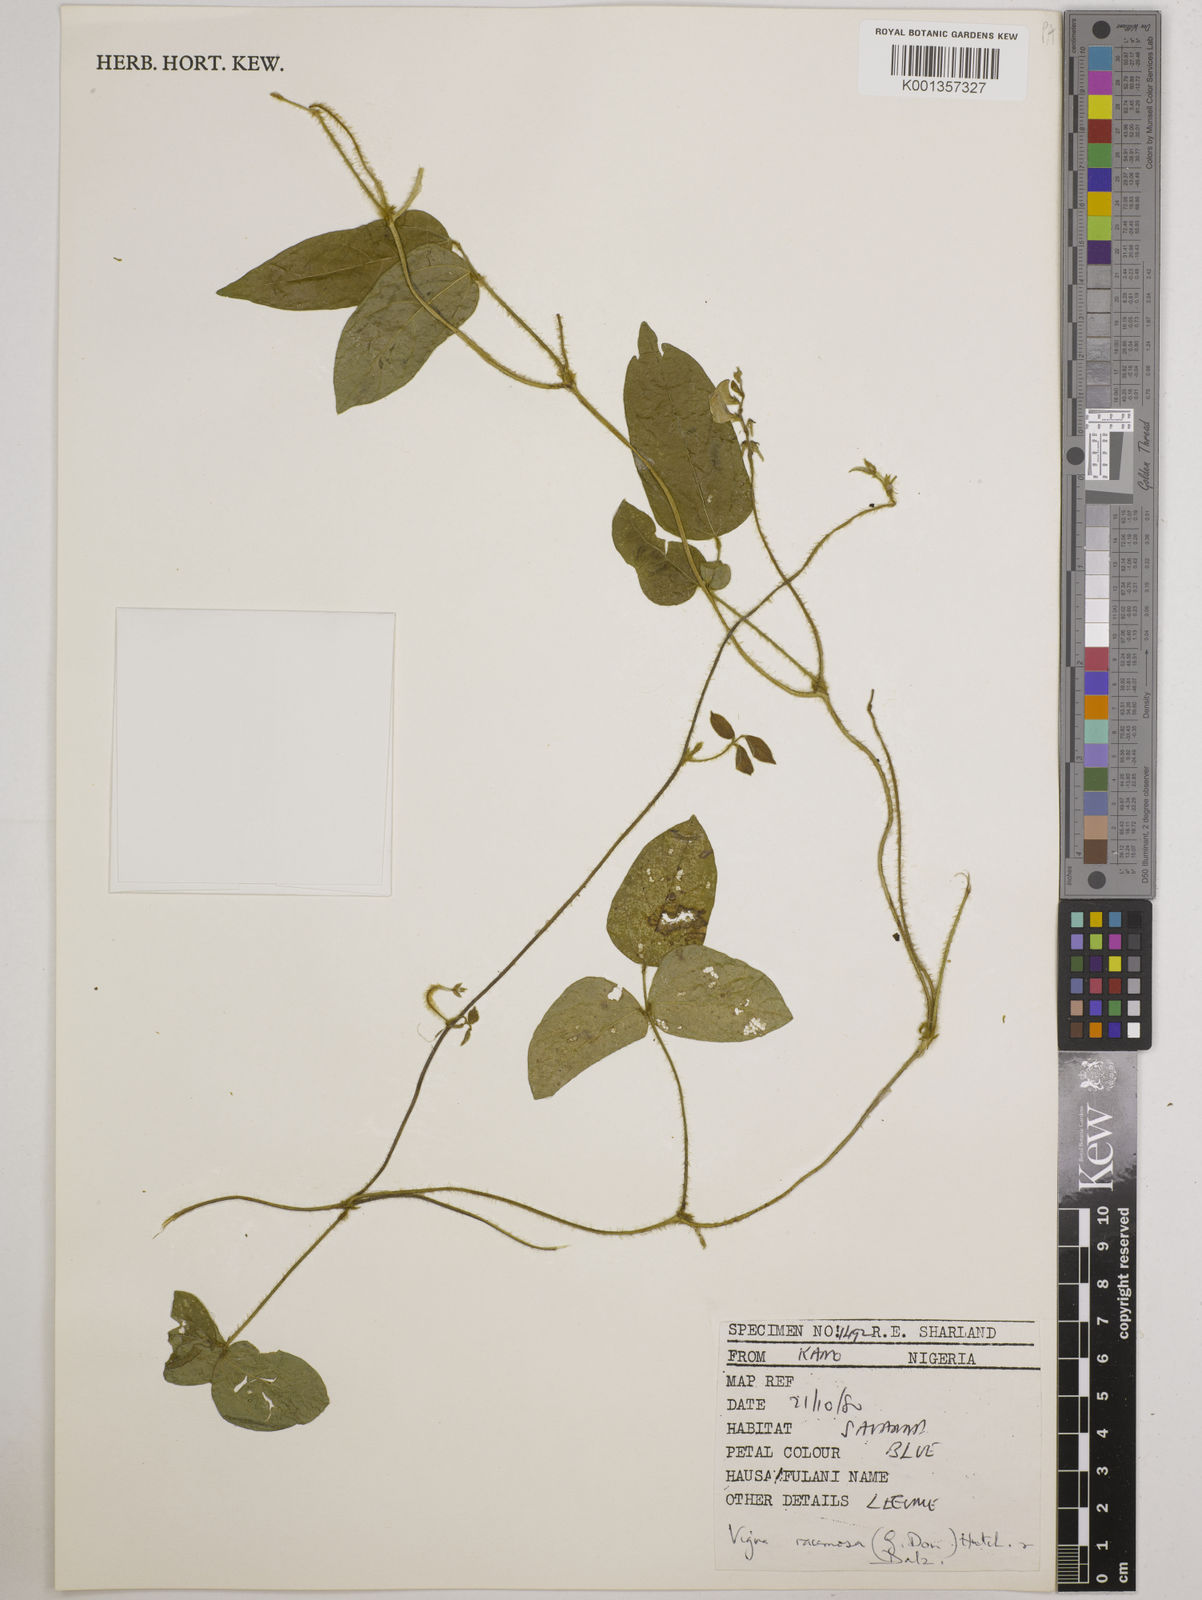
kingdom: Plantae
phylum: Tracheophyta
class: Magnoliopsida
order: Fabales
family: Fabaceae
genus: Vigna
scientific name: Vigna racemosa
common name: Beans not eaten
